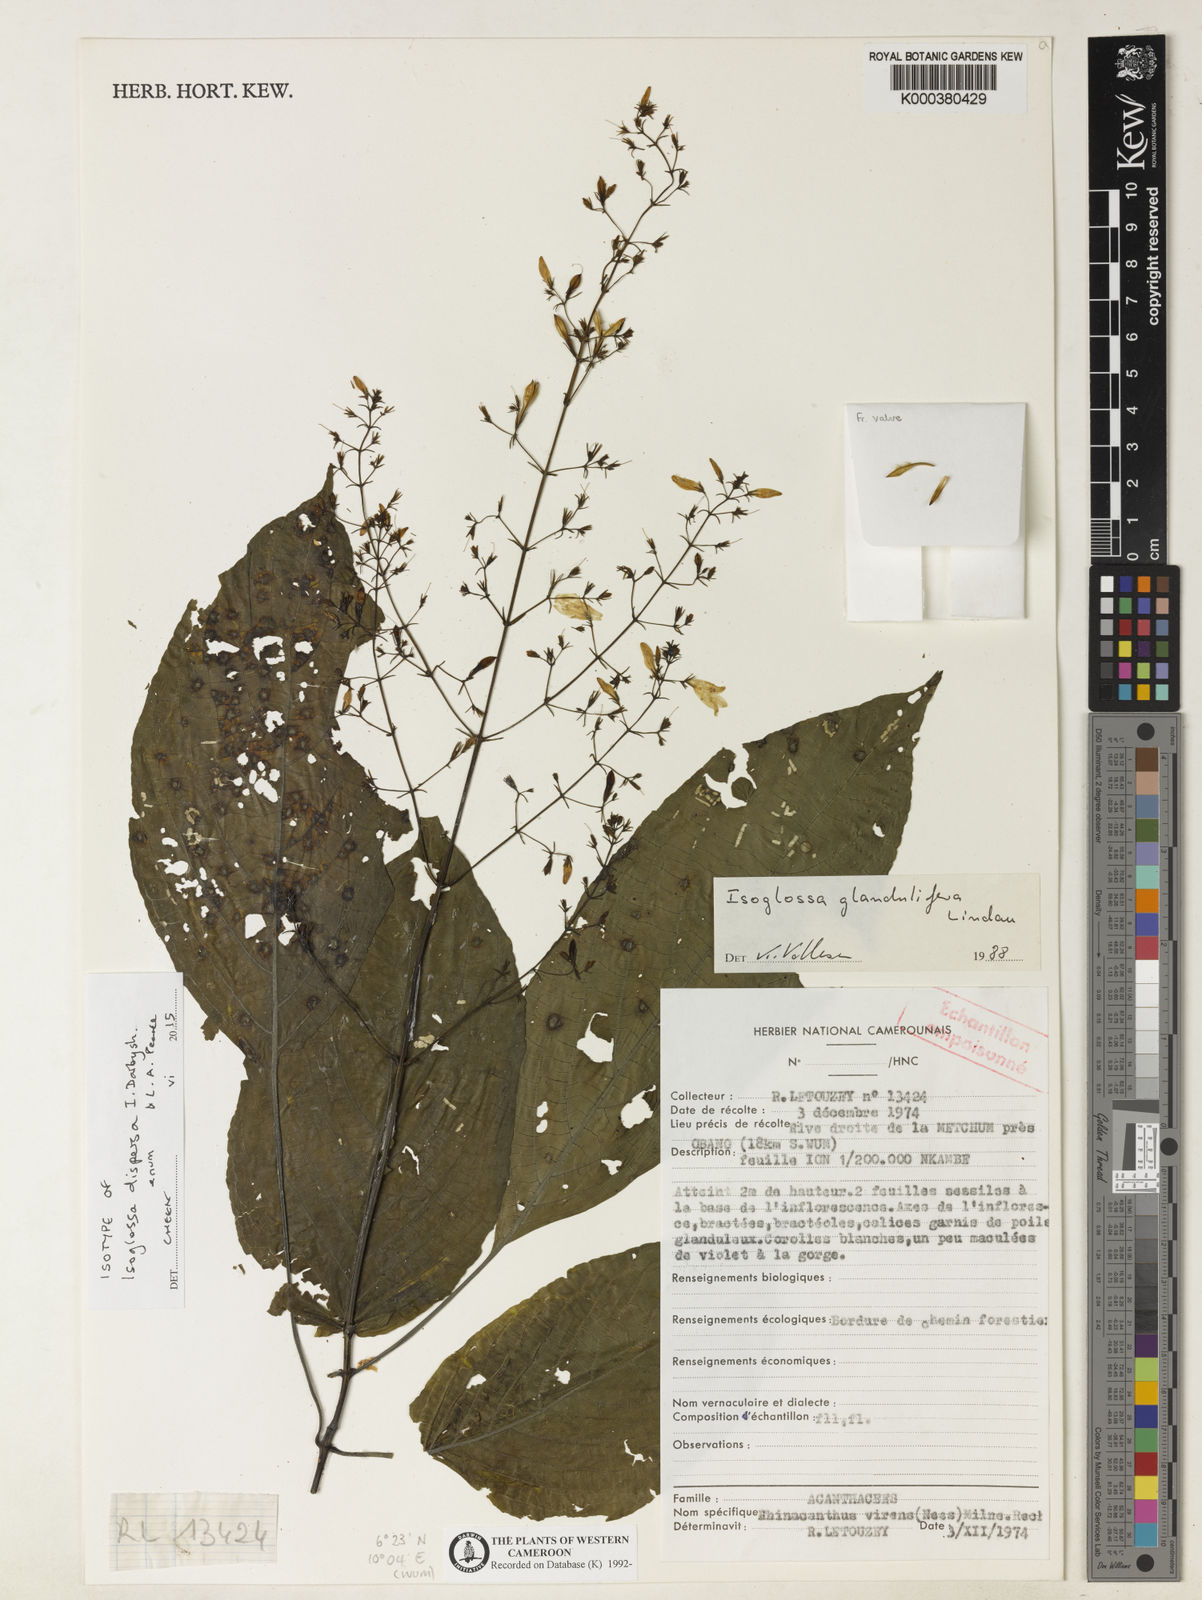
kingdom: Plantae
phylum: Tracheophyta
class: Magnoliopsida
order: Lamiales
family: Acanthaceae
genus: Isoglossa
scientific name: Isoglossa dispersa
